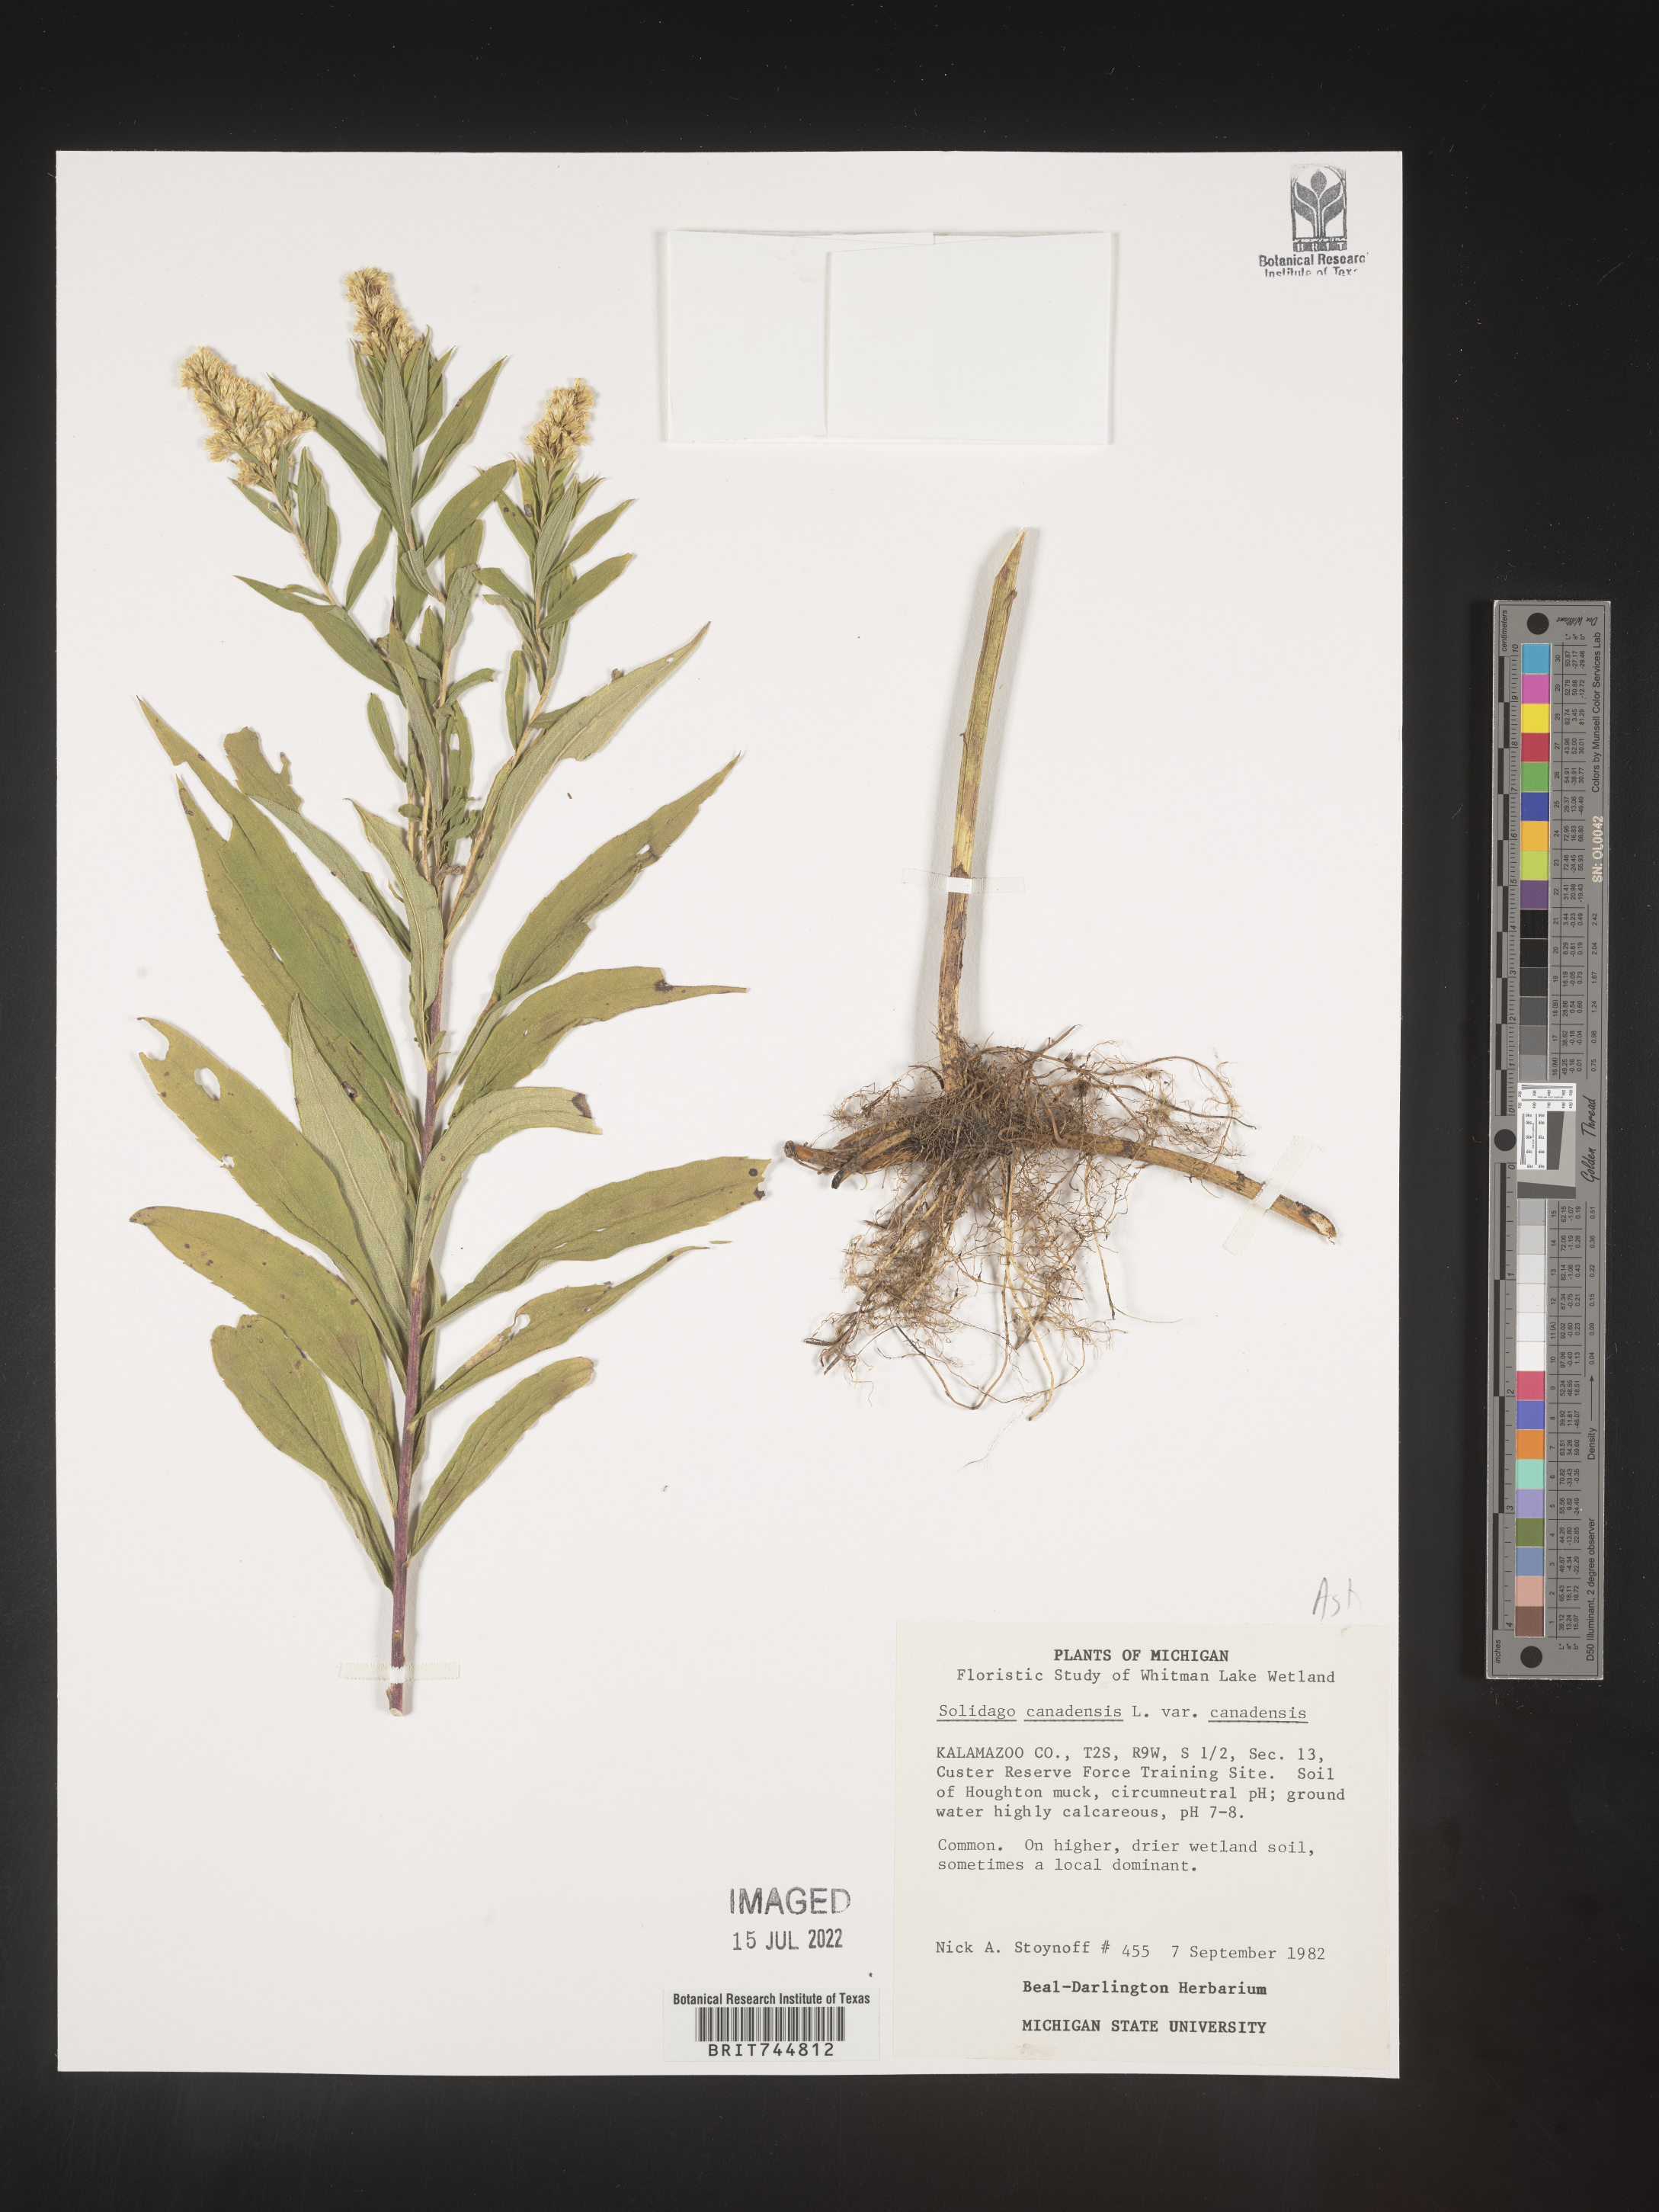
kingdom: Plantae
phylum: Tracheophyta
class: Magnoliopsida
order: Asterales
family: Asteraceae
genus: Solidago
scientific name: Solidago canadensis
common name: Canada goldenrod
